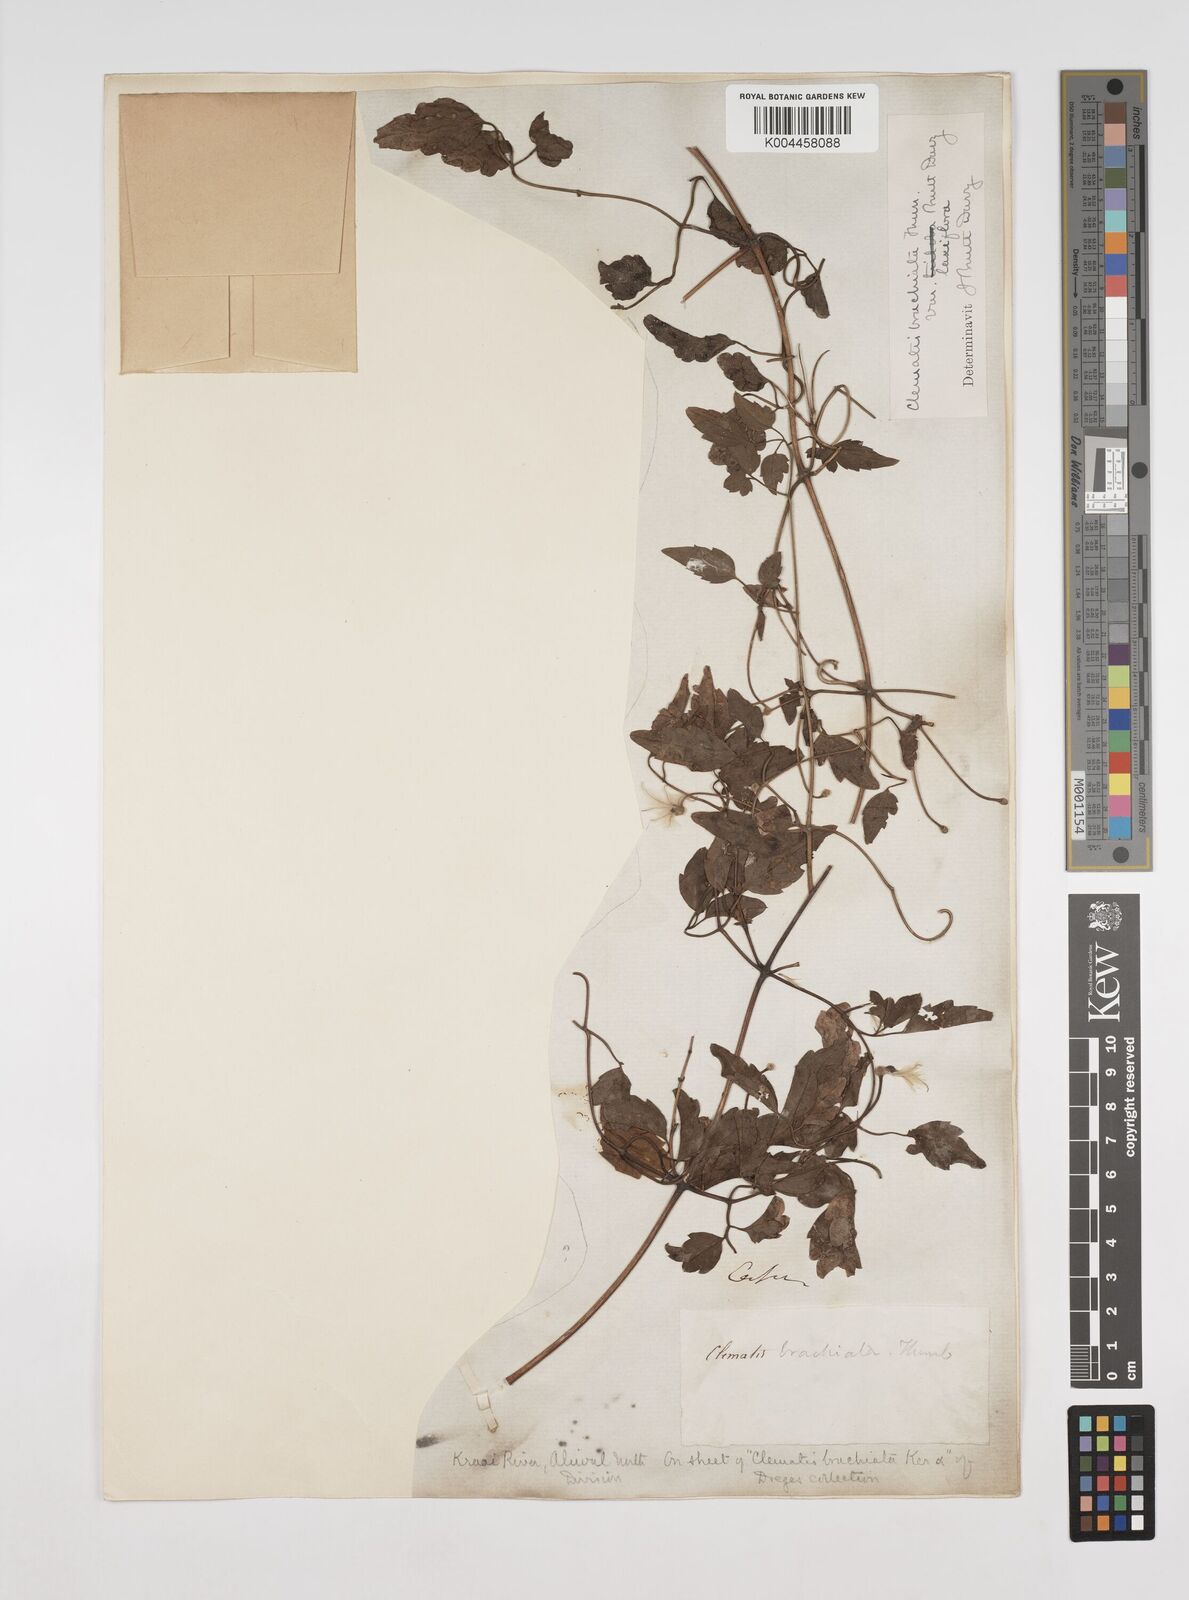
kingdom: Plantae
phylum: Tracheophyta
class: Magnoliopsida
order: Ranunculales
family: Ranunculaceae
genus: Clematis
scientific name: Clematis brachiata
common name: Traveler's-joy
